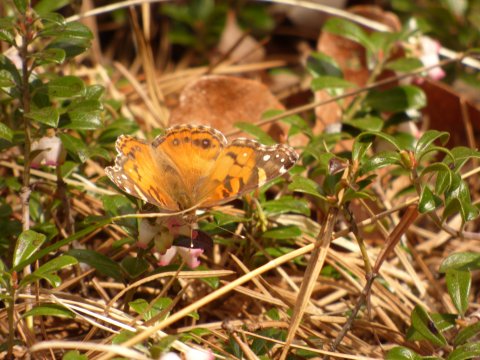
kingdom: Animalia
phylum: Arthropoda
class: Insecta
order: Lepidoptera
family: Nymphalidae
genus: Vanessa
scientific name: Vanessa virginiensis
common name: American Lady
